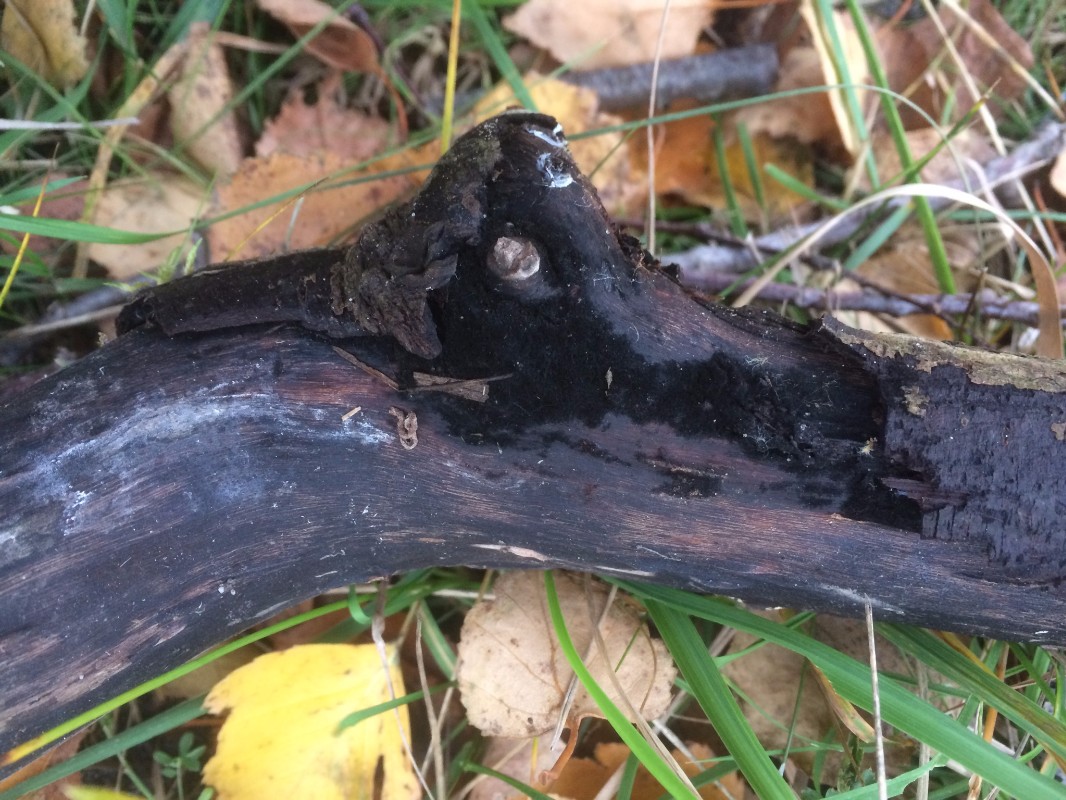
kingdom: Fungi
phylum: Ascomycota
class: Sordariomycetes
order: Coronophorales
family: Chaetosphaerellaceae
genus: Chaetosphaerella
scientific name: Chaetosphaerella phaeostroma
